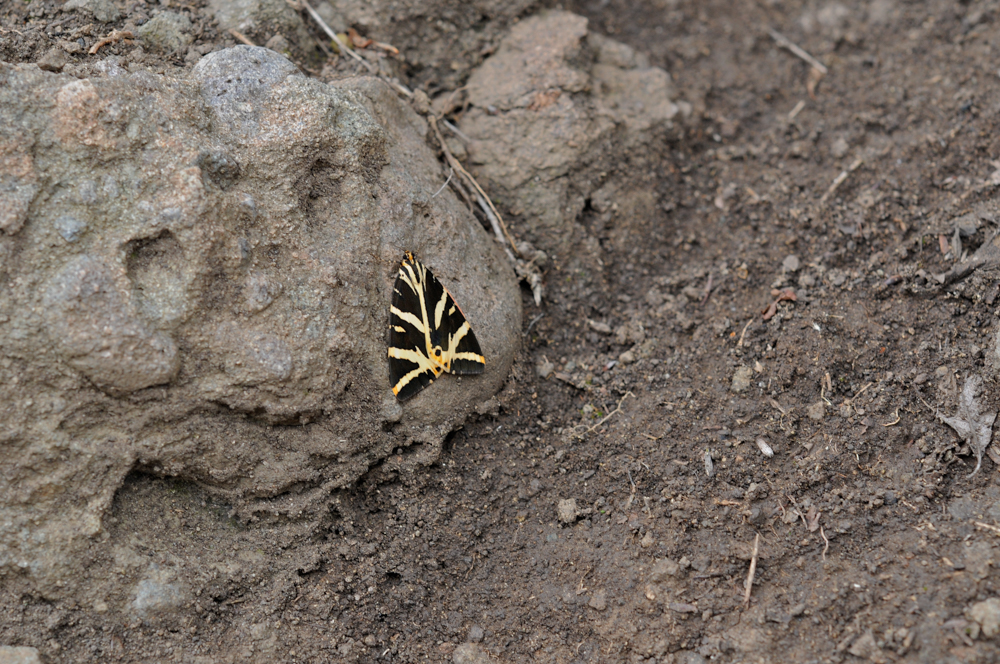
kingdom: Animalia
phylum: Arthropoda
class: Insecta
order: Lepidoptera
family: Erebidae
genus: Euplagia
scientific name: Euplagia quadripunctaria
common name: Jersey tiger
